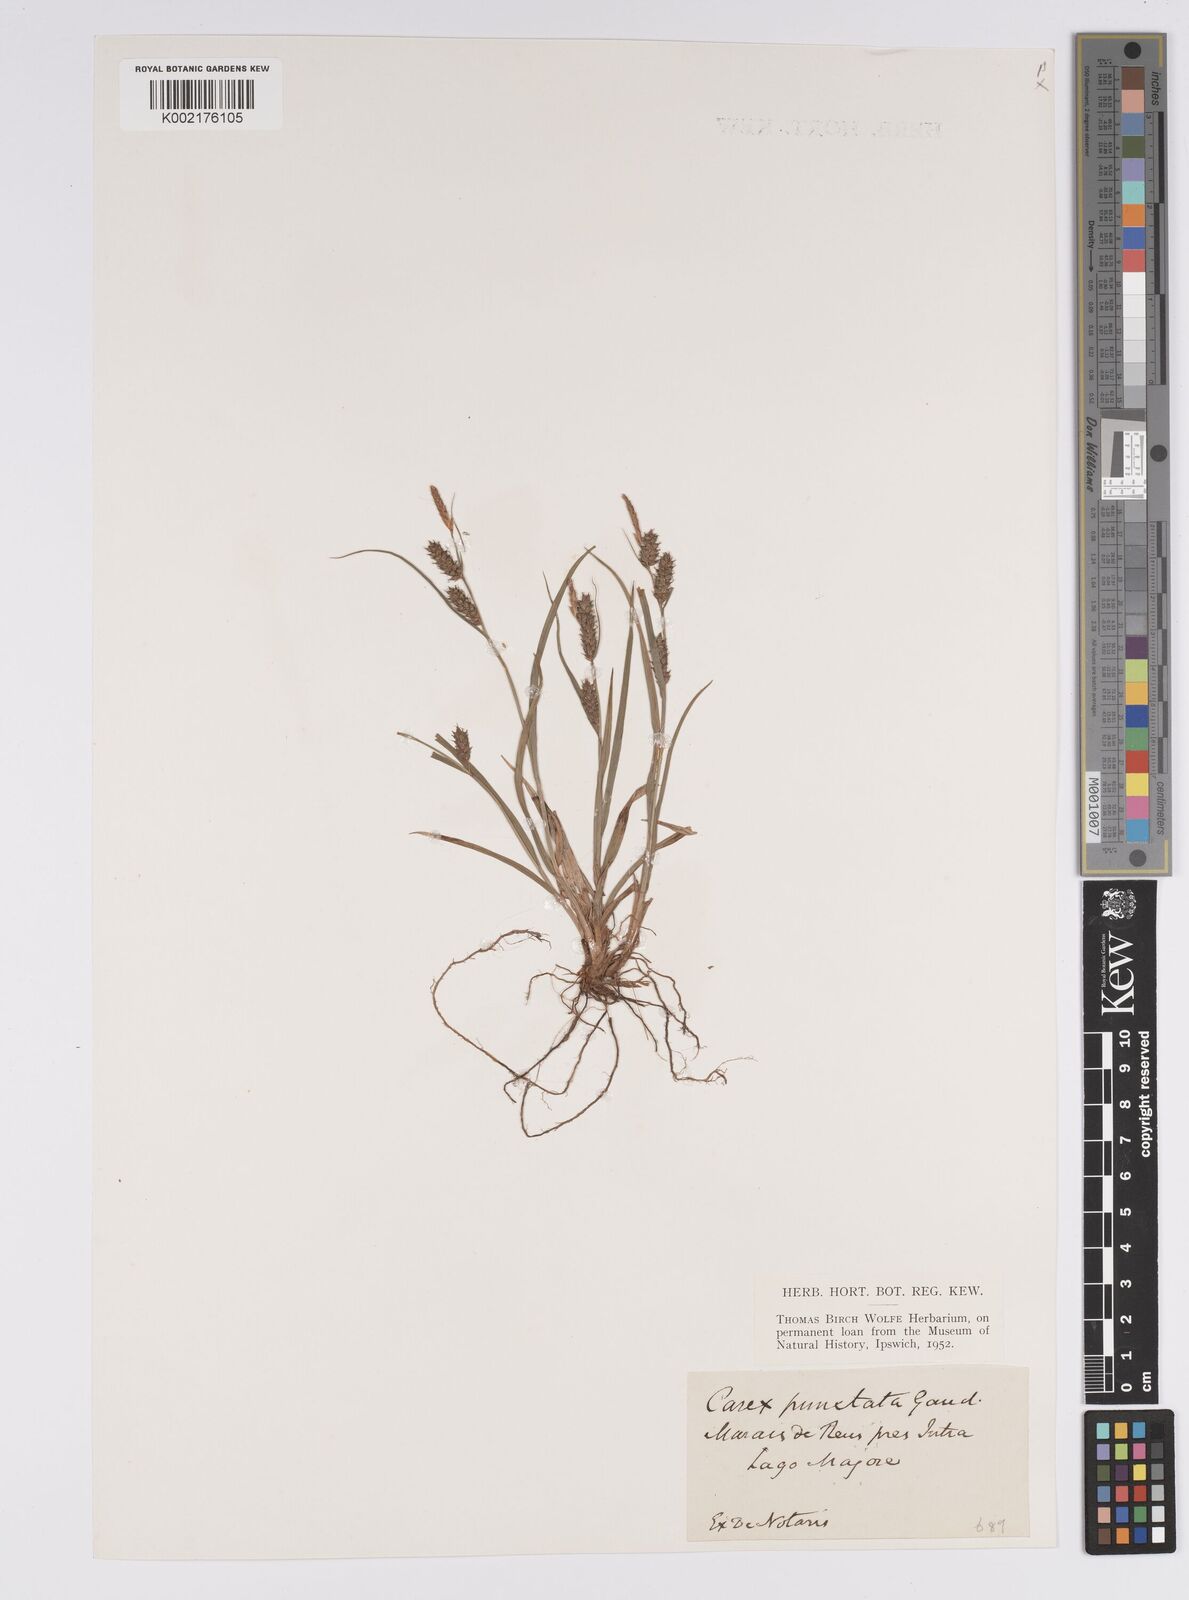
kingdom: Plantae
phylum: Tracheophyta
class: Liliopsida
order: Poales
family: Cyperaceae
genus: Carex
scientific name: Carex punctata
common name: Dotted sedge
